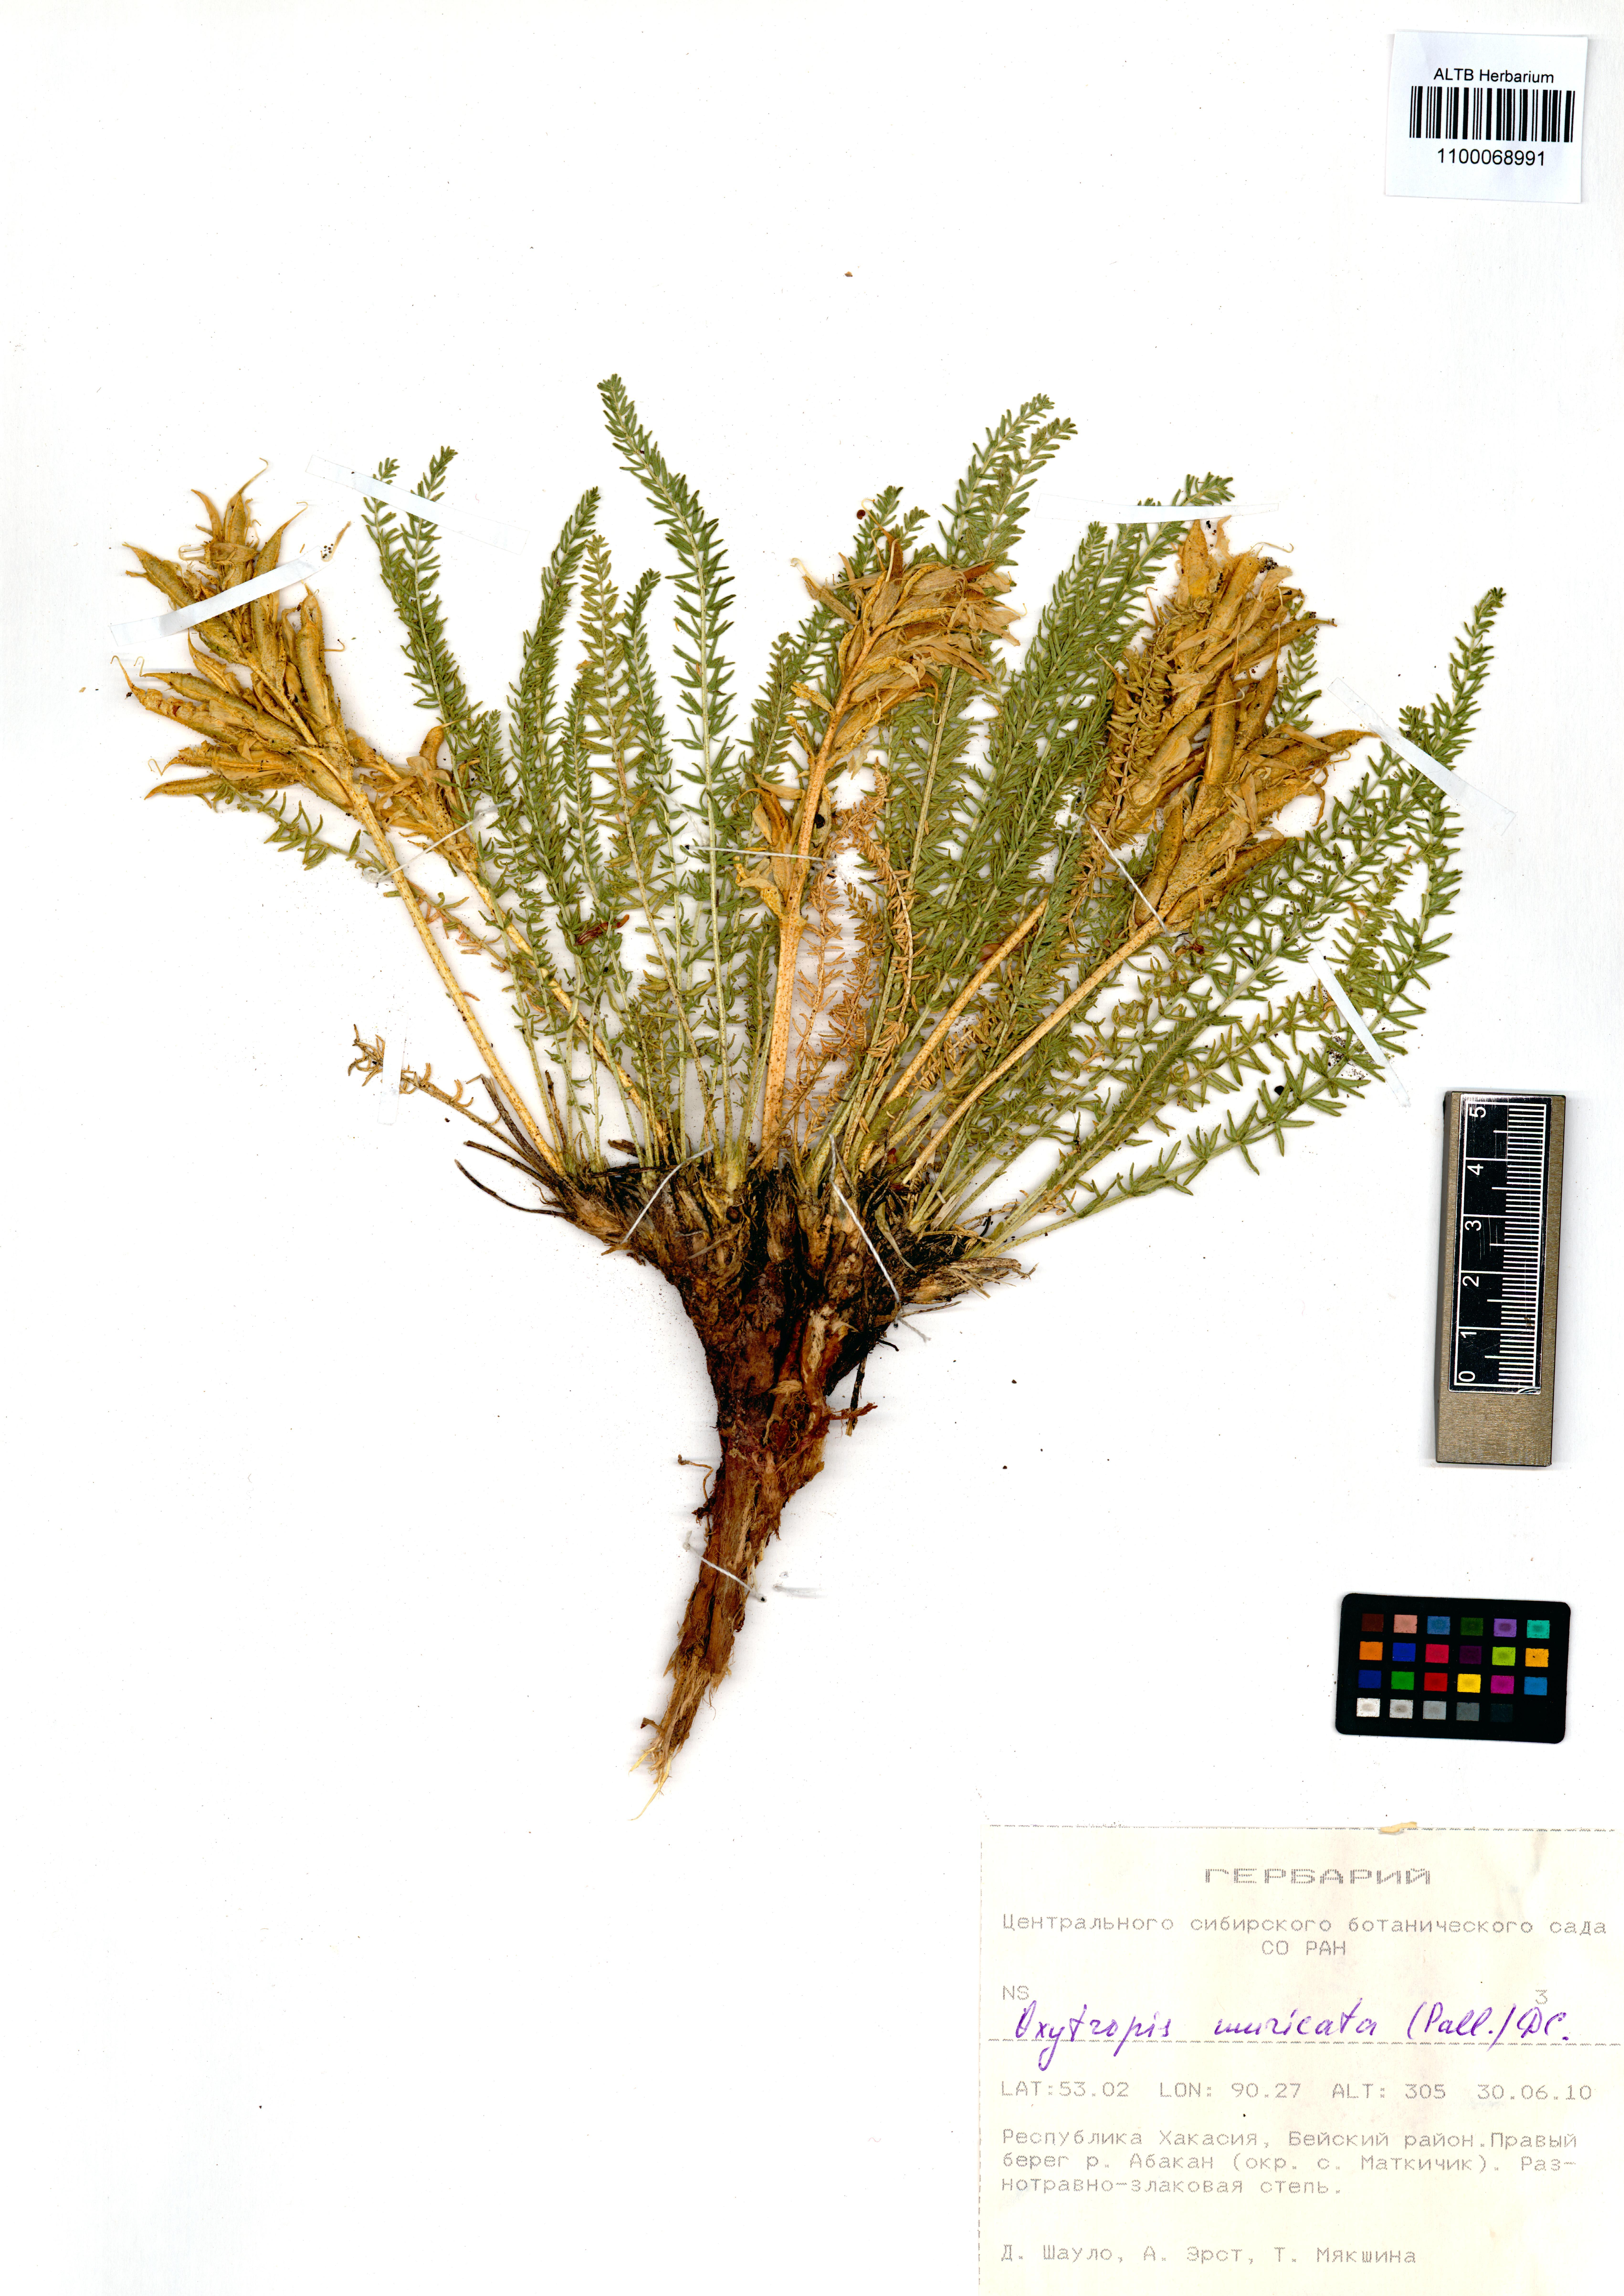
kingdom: Plantae
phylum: Tracheophyta
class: Magnoliopsida
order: Fabales
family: Fabaceae
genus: Oxytropis
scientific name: Oxytropis muricata
